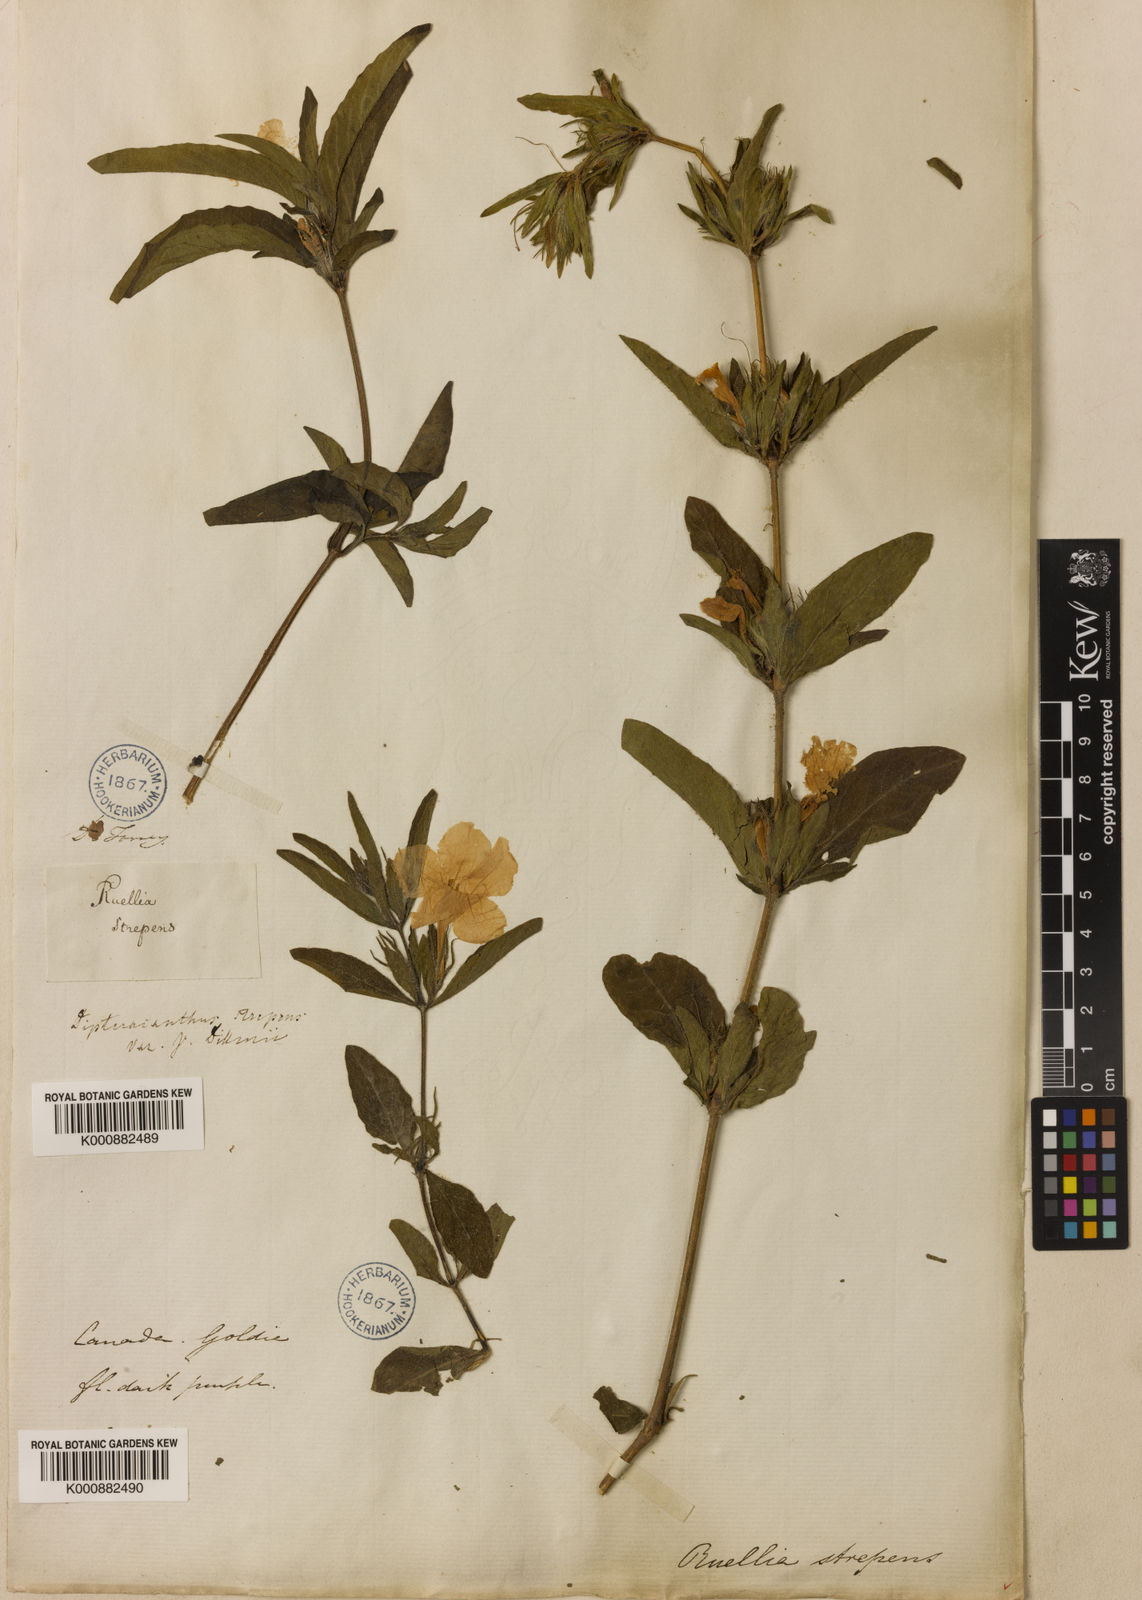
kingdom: Plantae
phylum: Tracheophyta
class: Magnoliopsida
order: Lamiales
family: Acanthaceae
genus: Ruellia
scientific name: Ruellia strepens
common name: Limestone wild petunia
